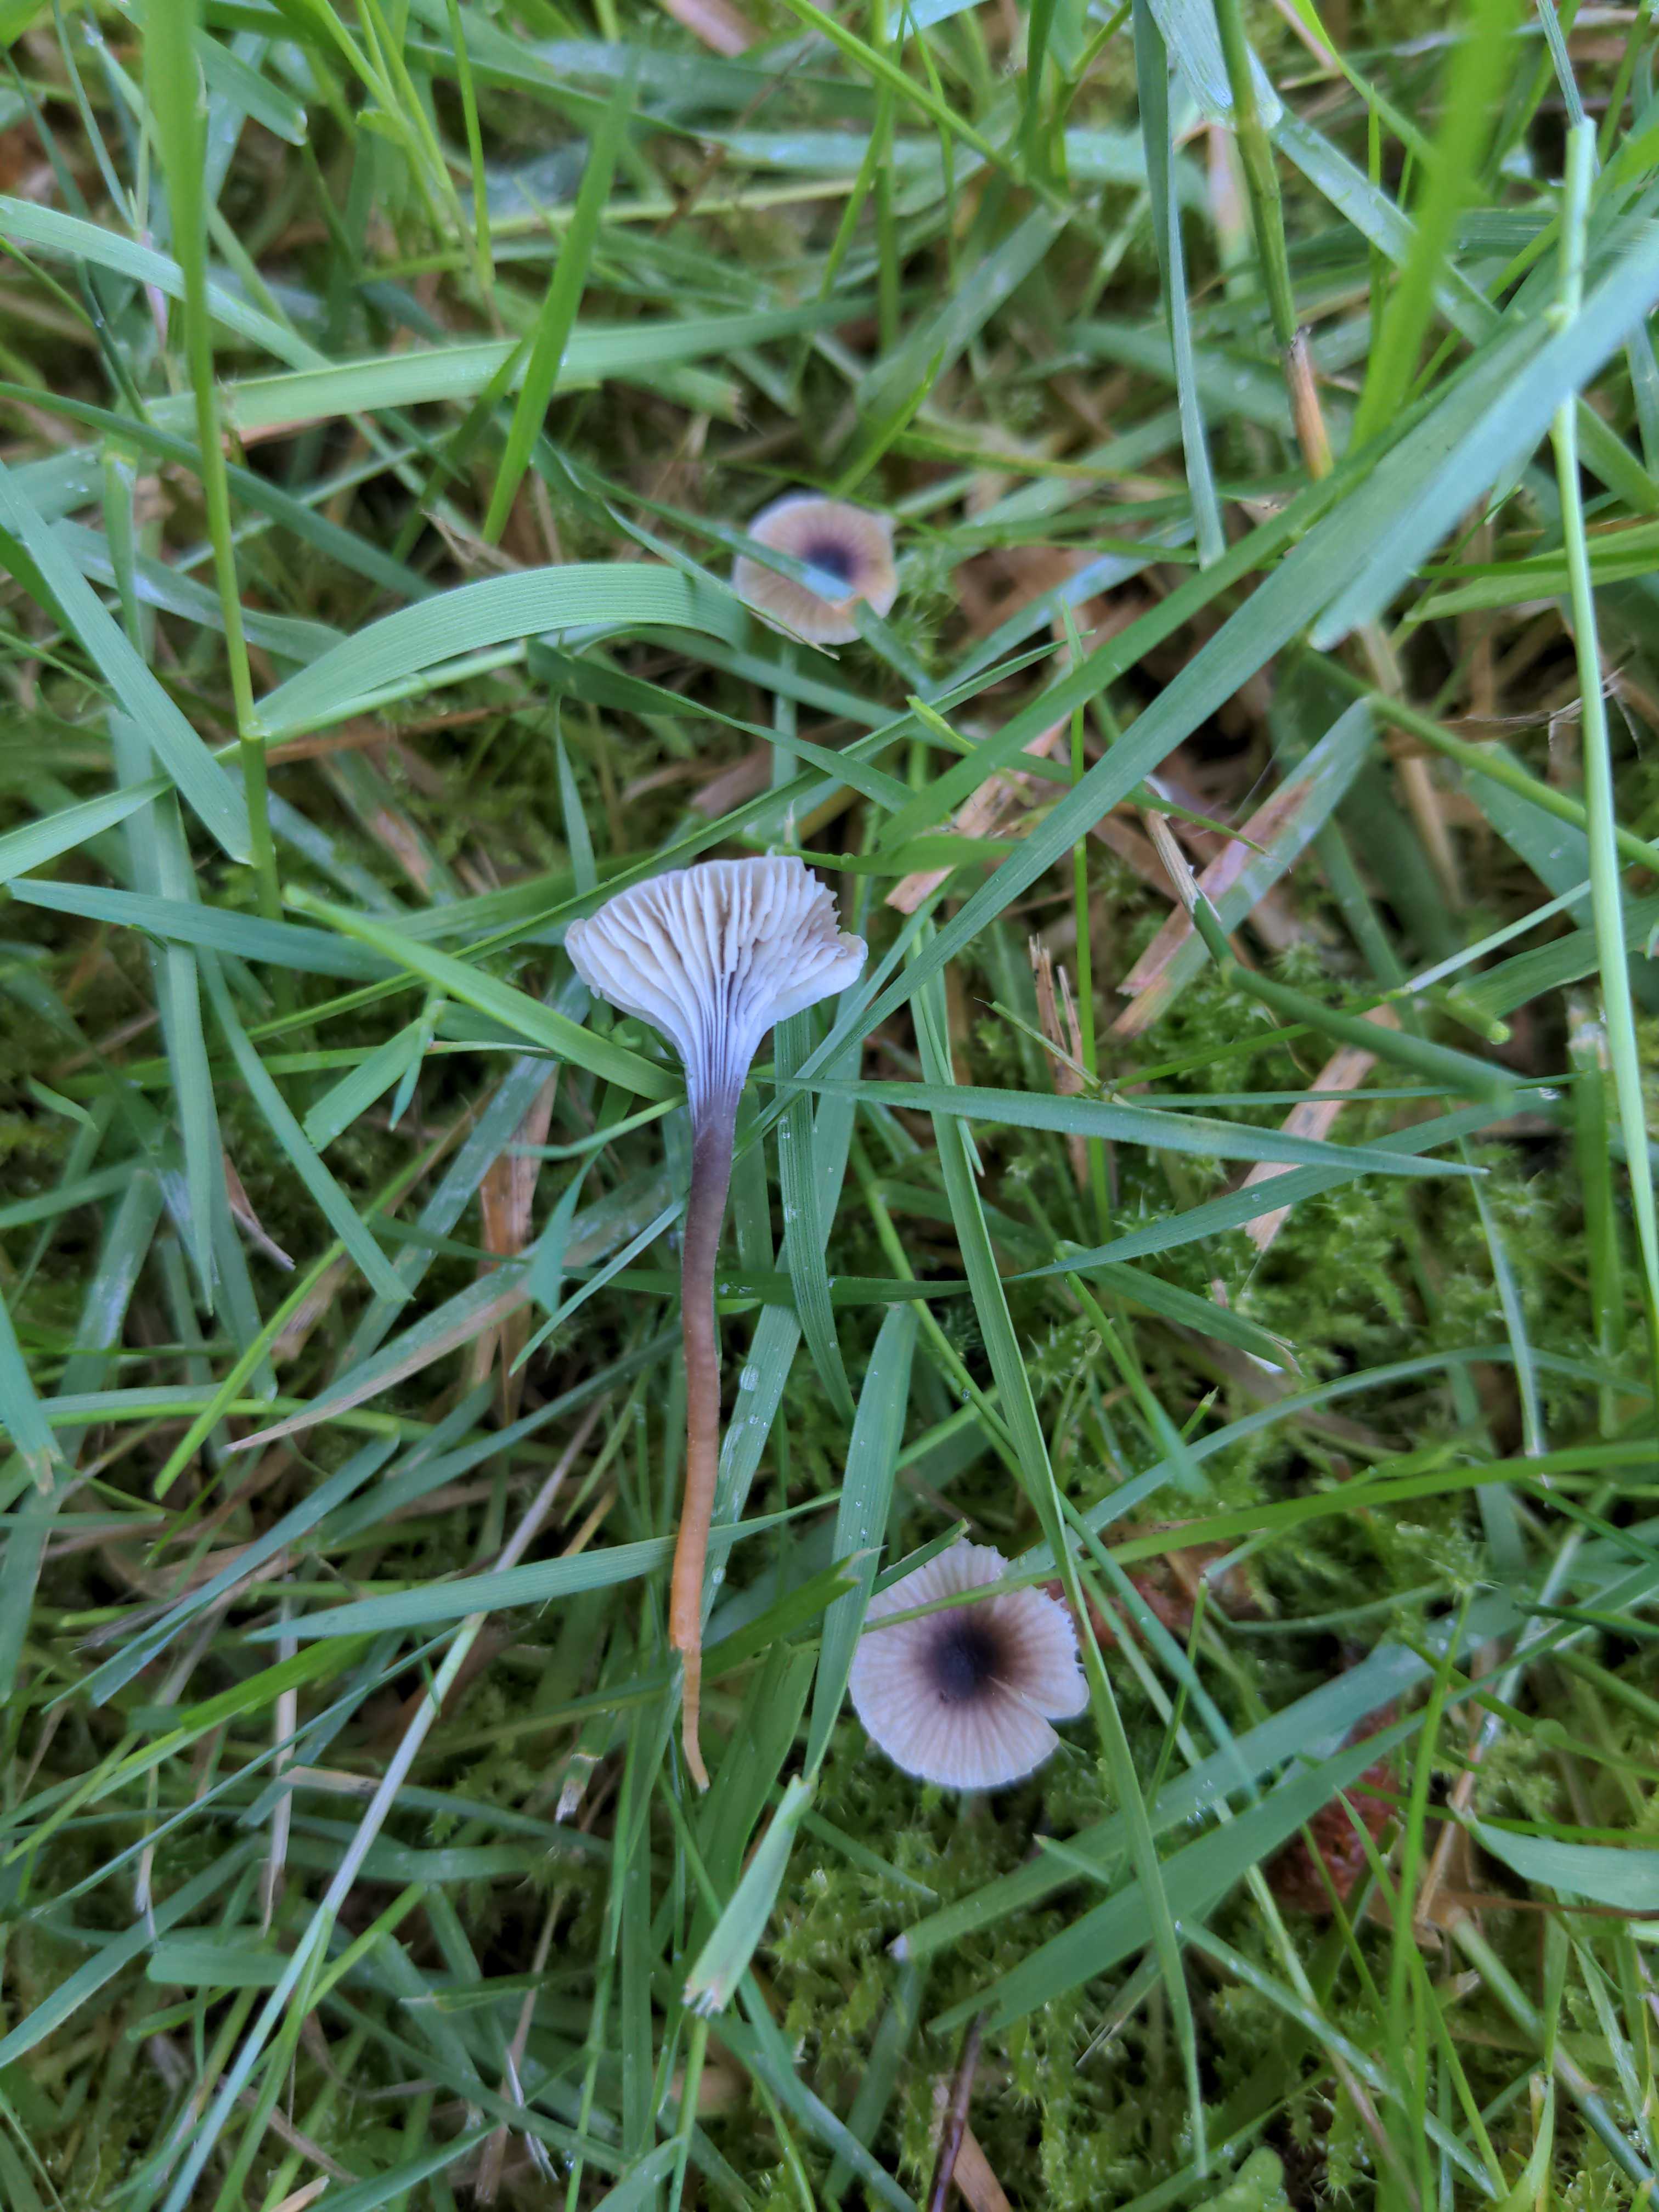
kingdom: Fungi
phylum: Basidiomycota
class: Agaricomycetes
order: Hymenochaetales
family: Rickenellaceae
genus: Rickenella
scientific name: Rickenella swartzii
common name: finstokket mosnavlehat
